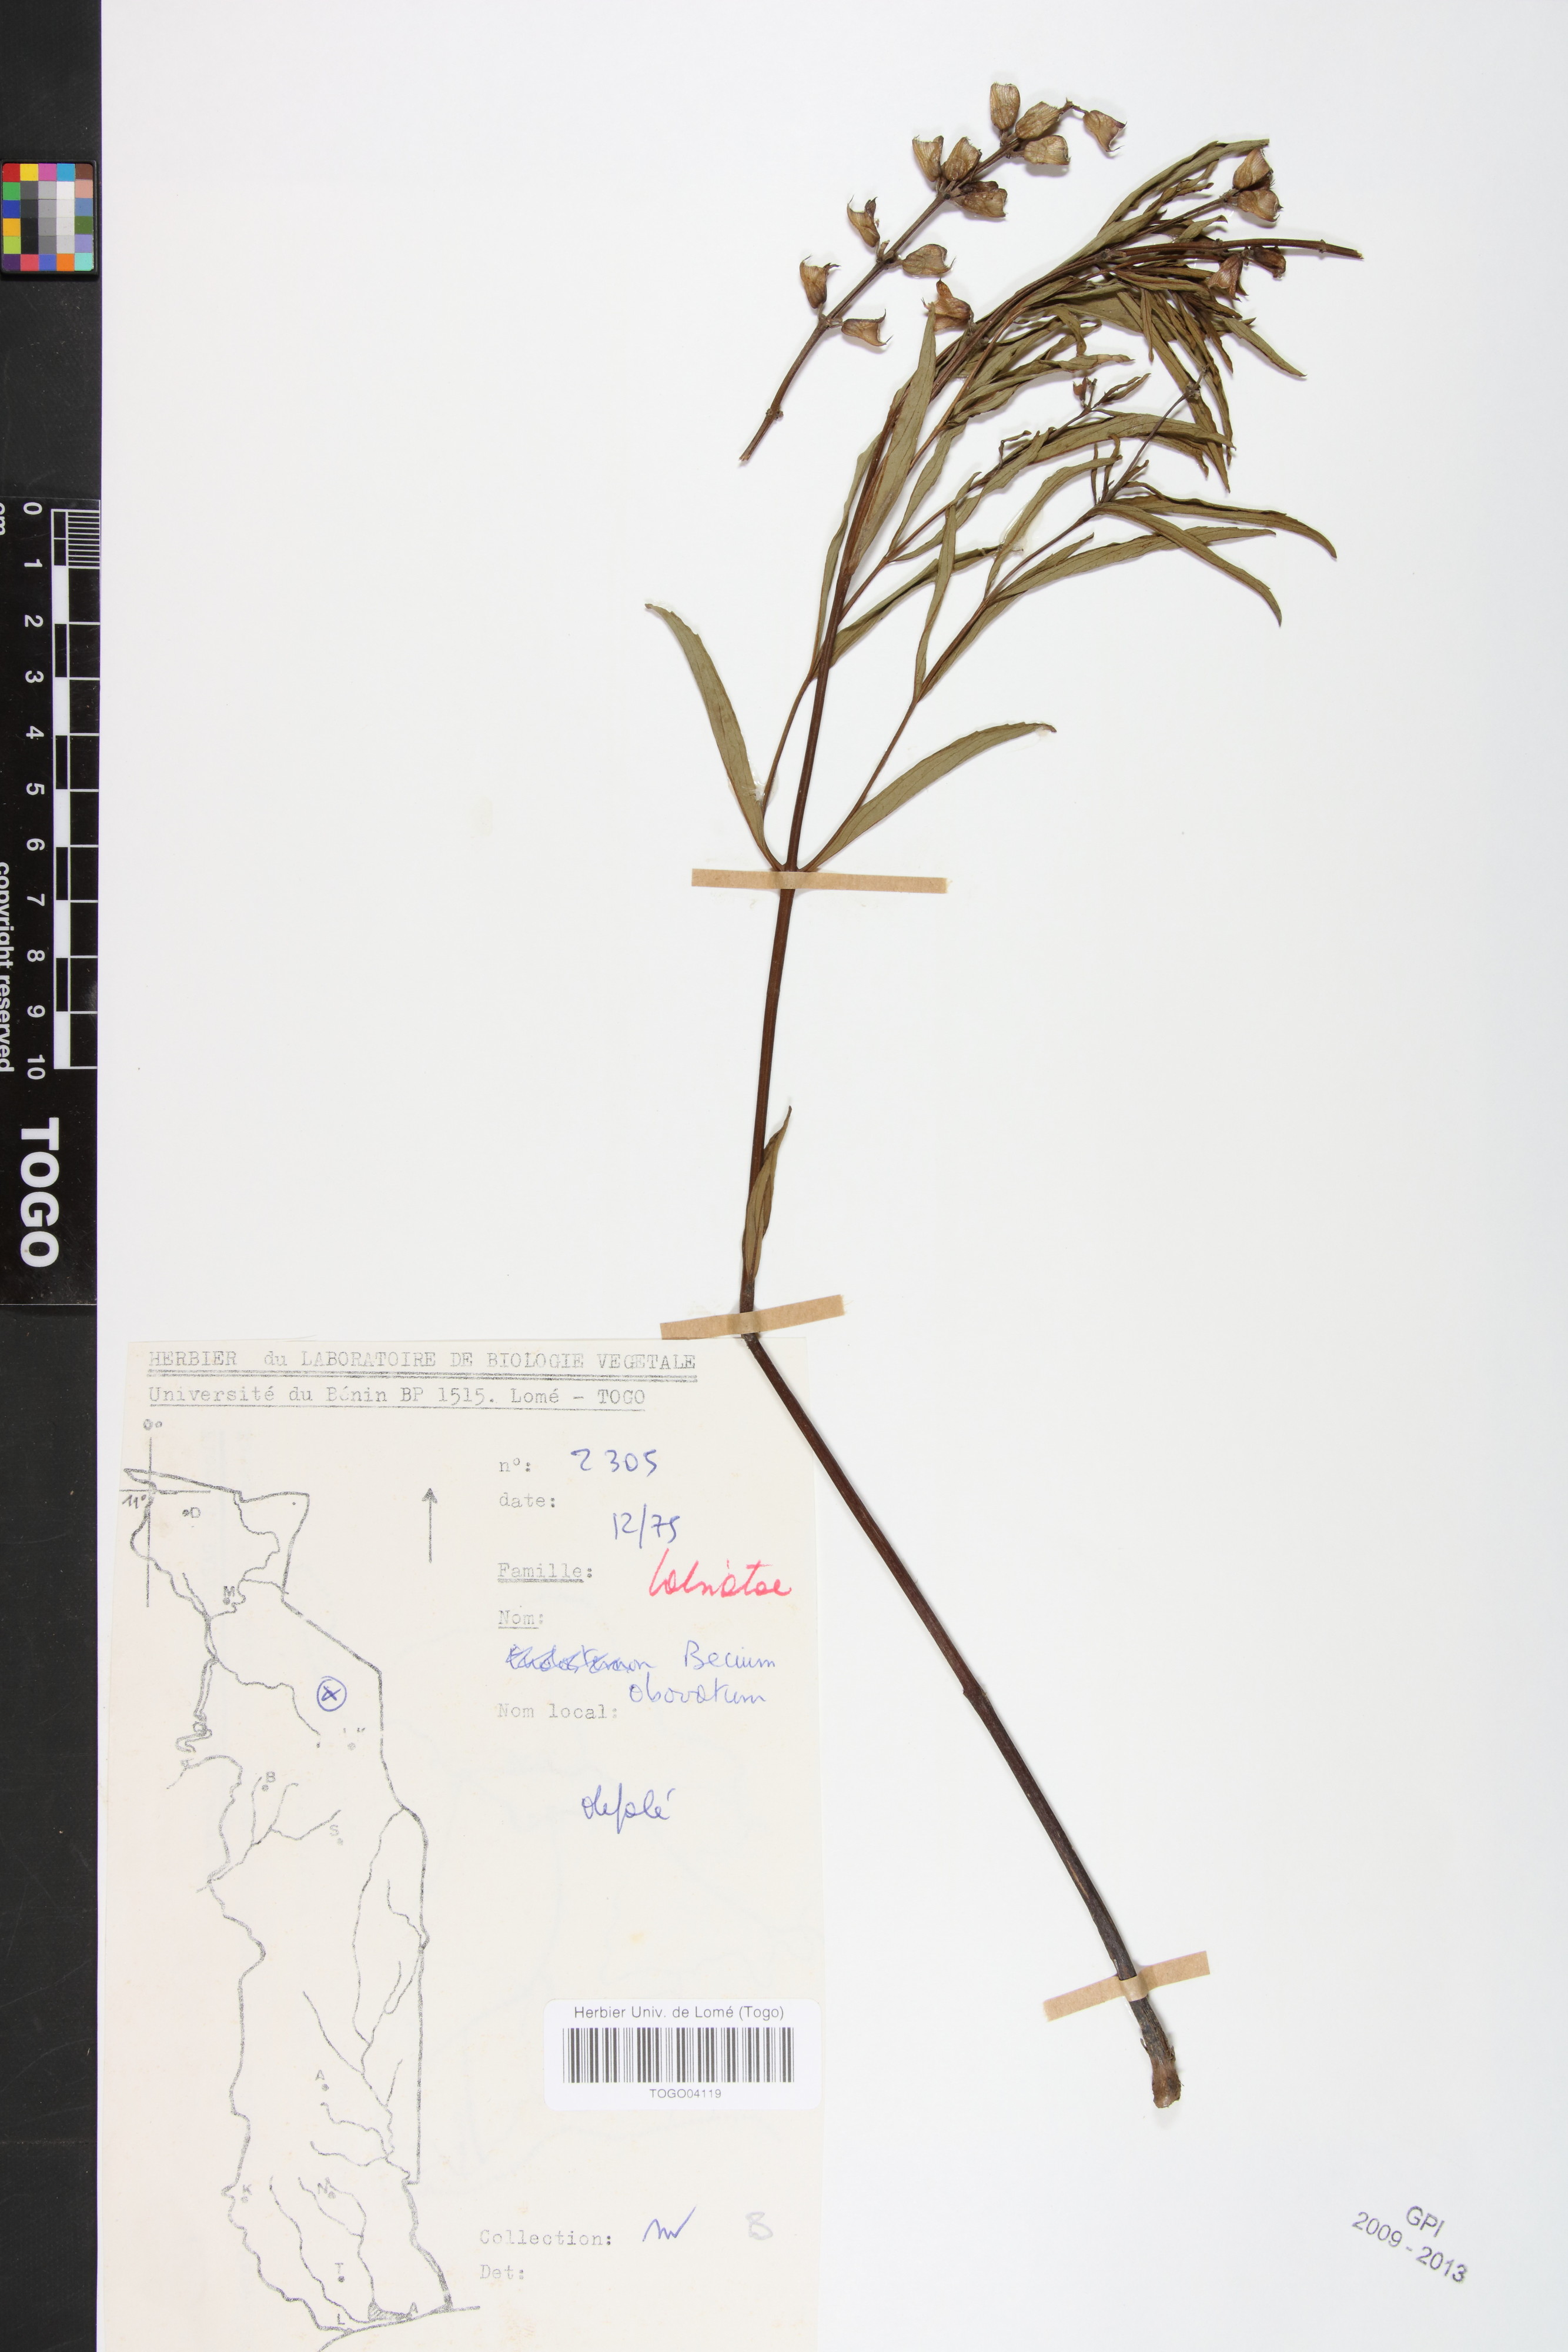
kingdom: Plantae
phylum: Tracheophyta
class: Magnoliopsida
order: Lamiales
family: Lamiaceae
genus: Ocimum
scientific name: Ocimum obovatum
